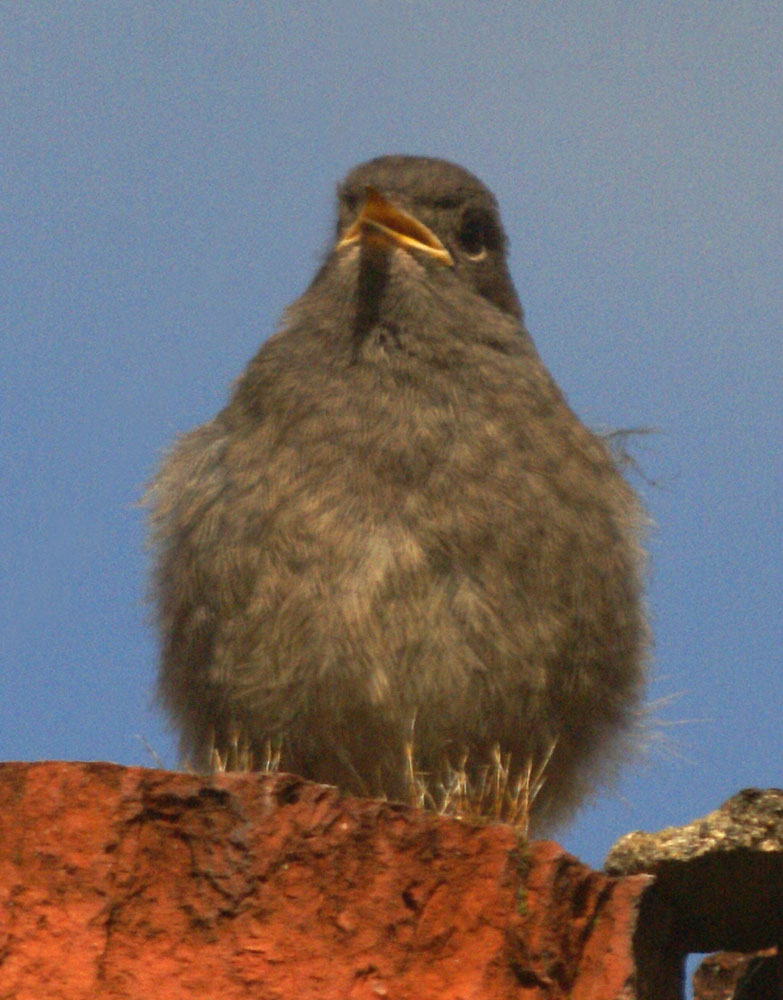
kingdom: Animalia
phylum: Chordata
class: Aves
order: Passeriformes
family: Muscicapidae
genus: Phoenicurus
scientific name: Phoenicurus phoenicurus
